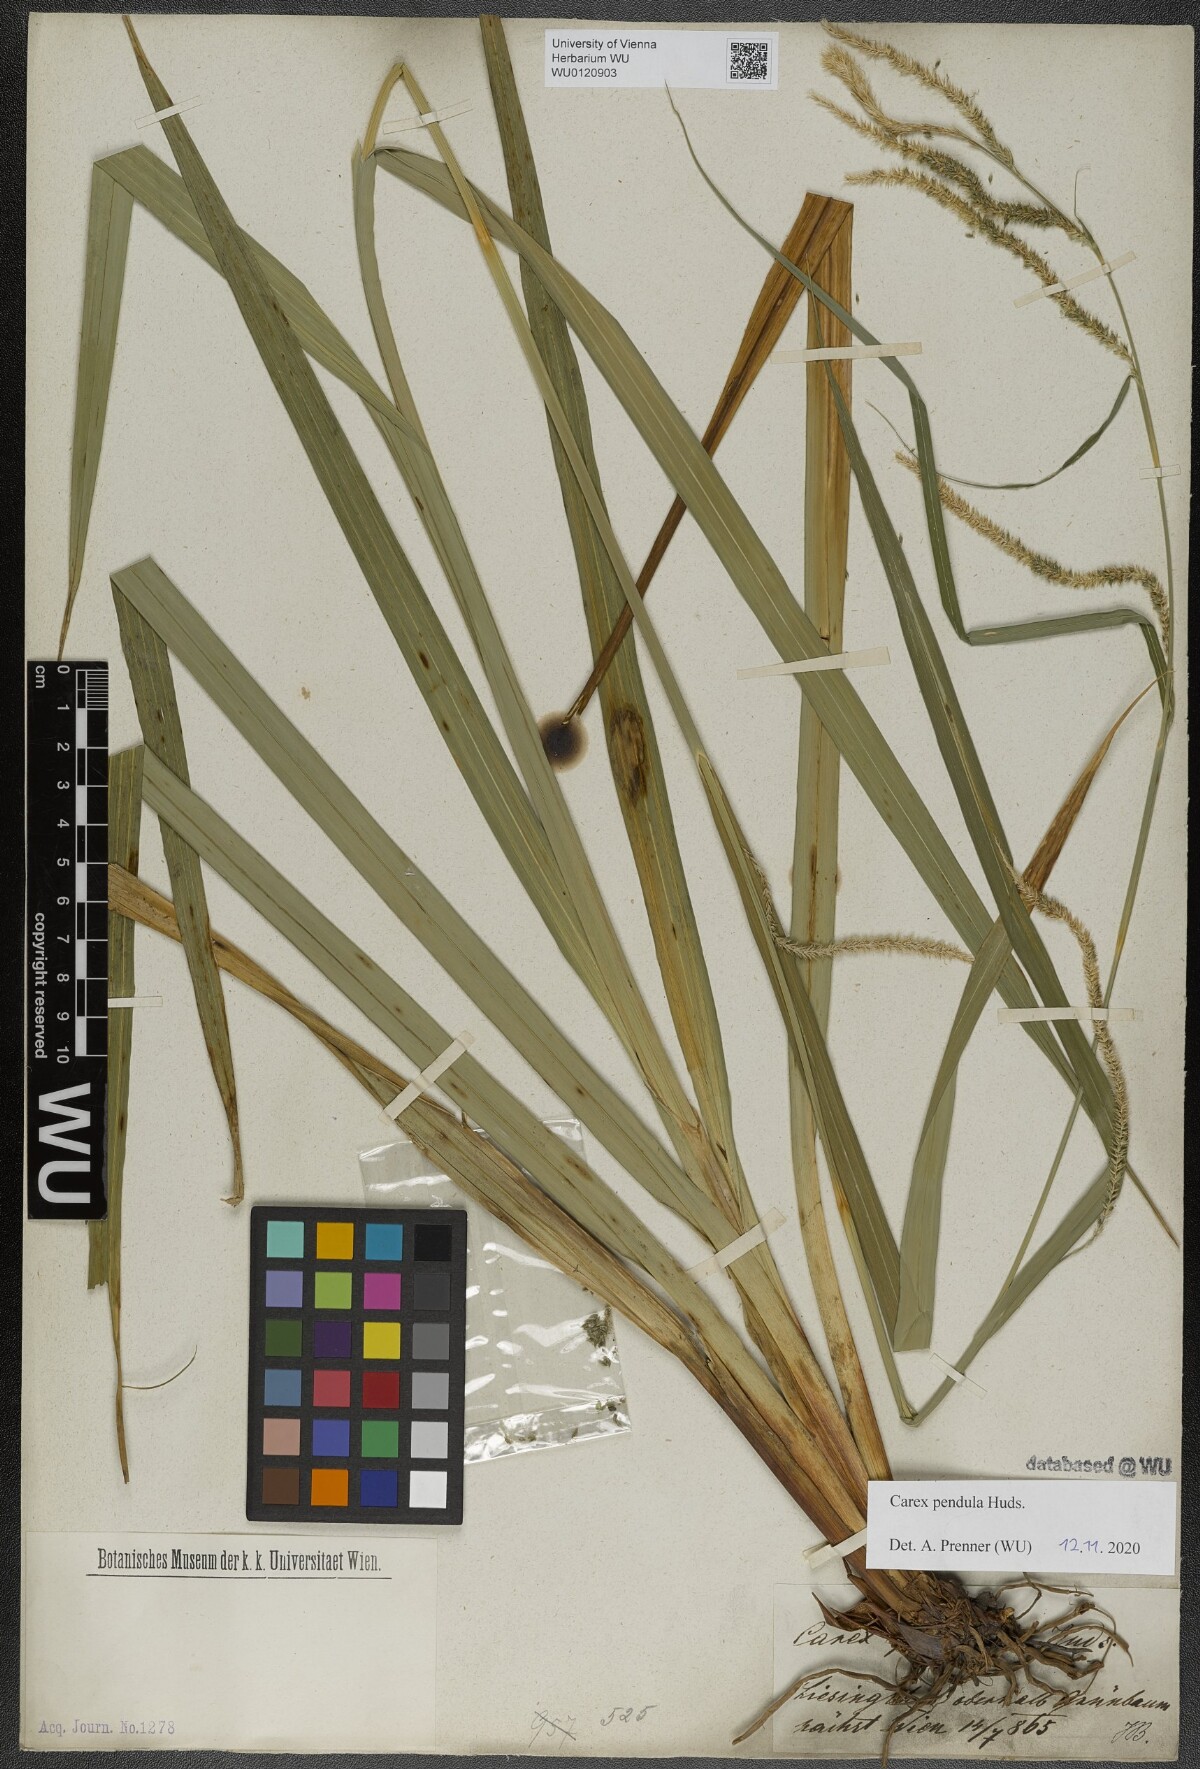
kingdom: Plantae
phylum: Tracheophyta
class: Liliopsida
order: Poales
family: Cyperaceae
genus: Carex
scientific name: Carex pendula
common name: Pendulous sedge
